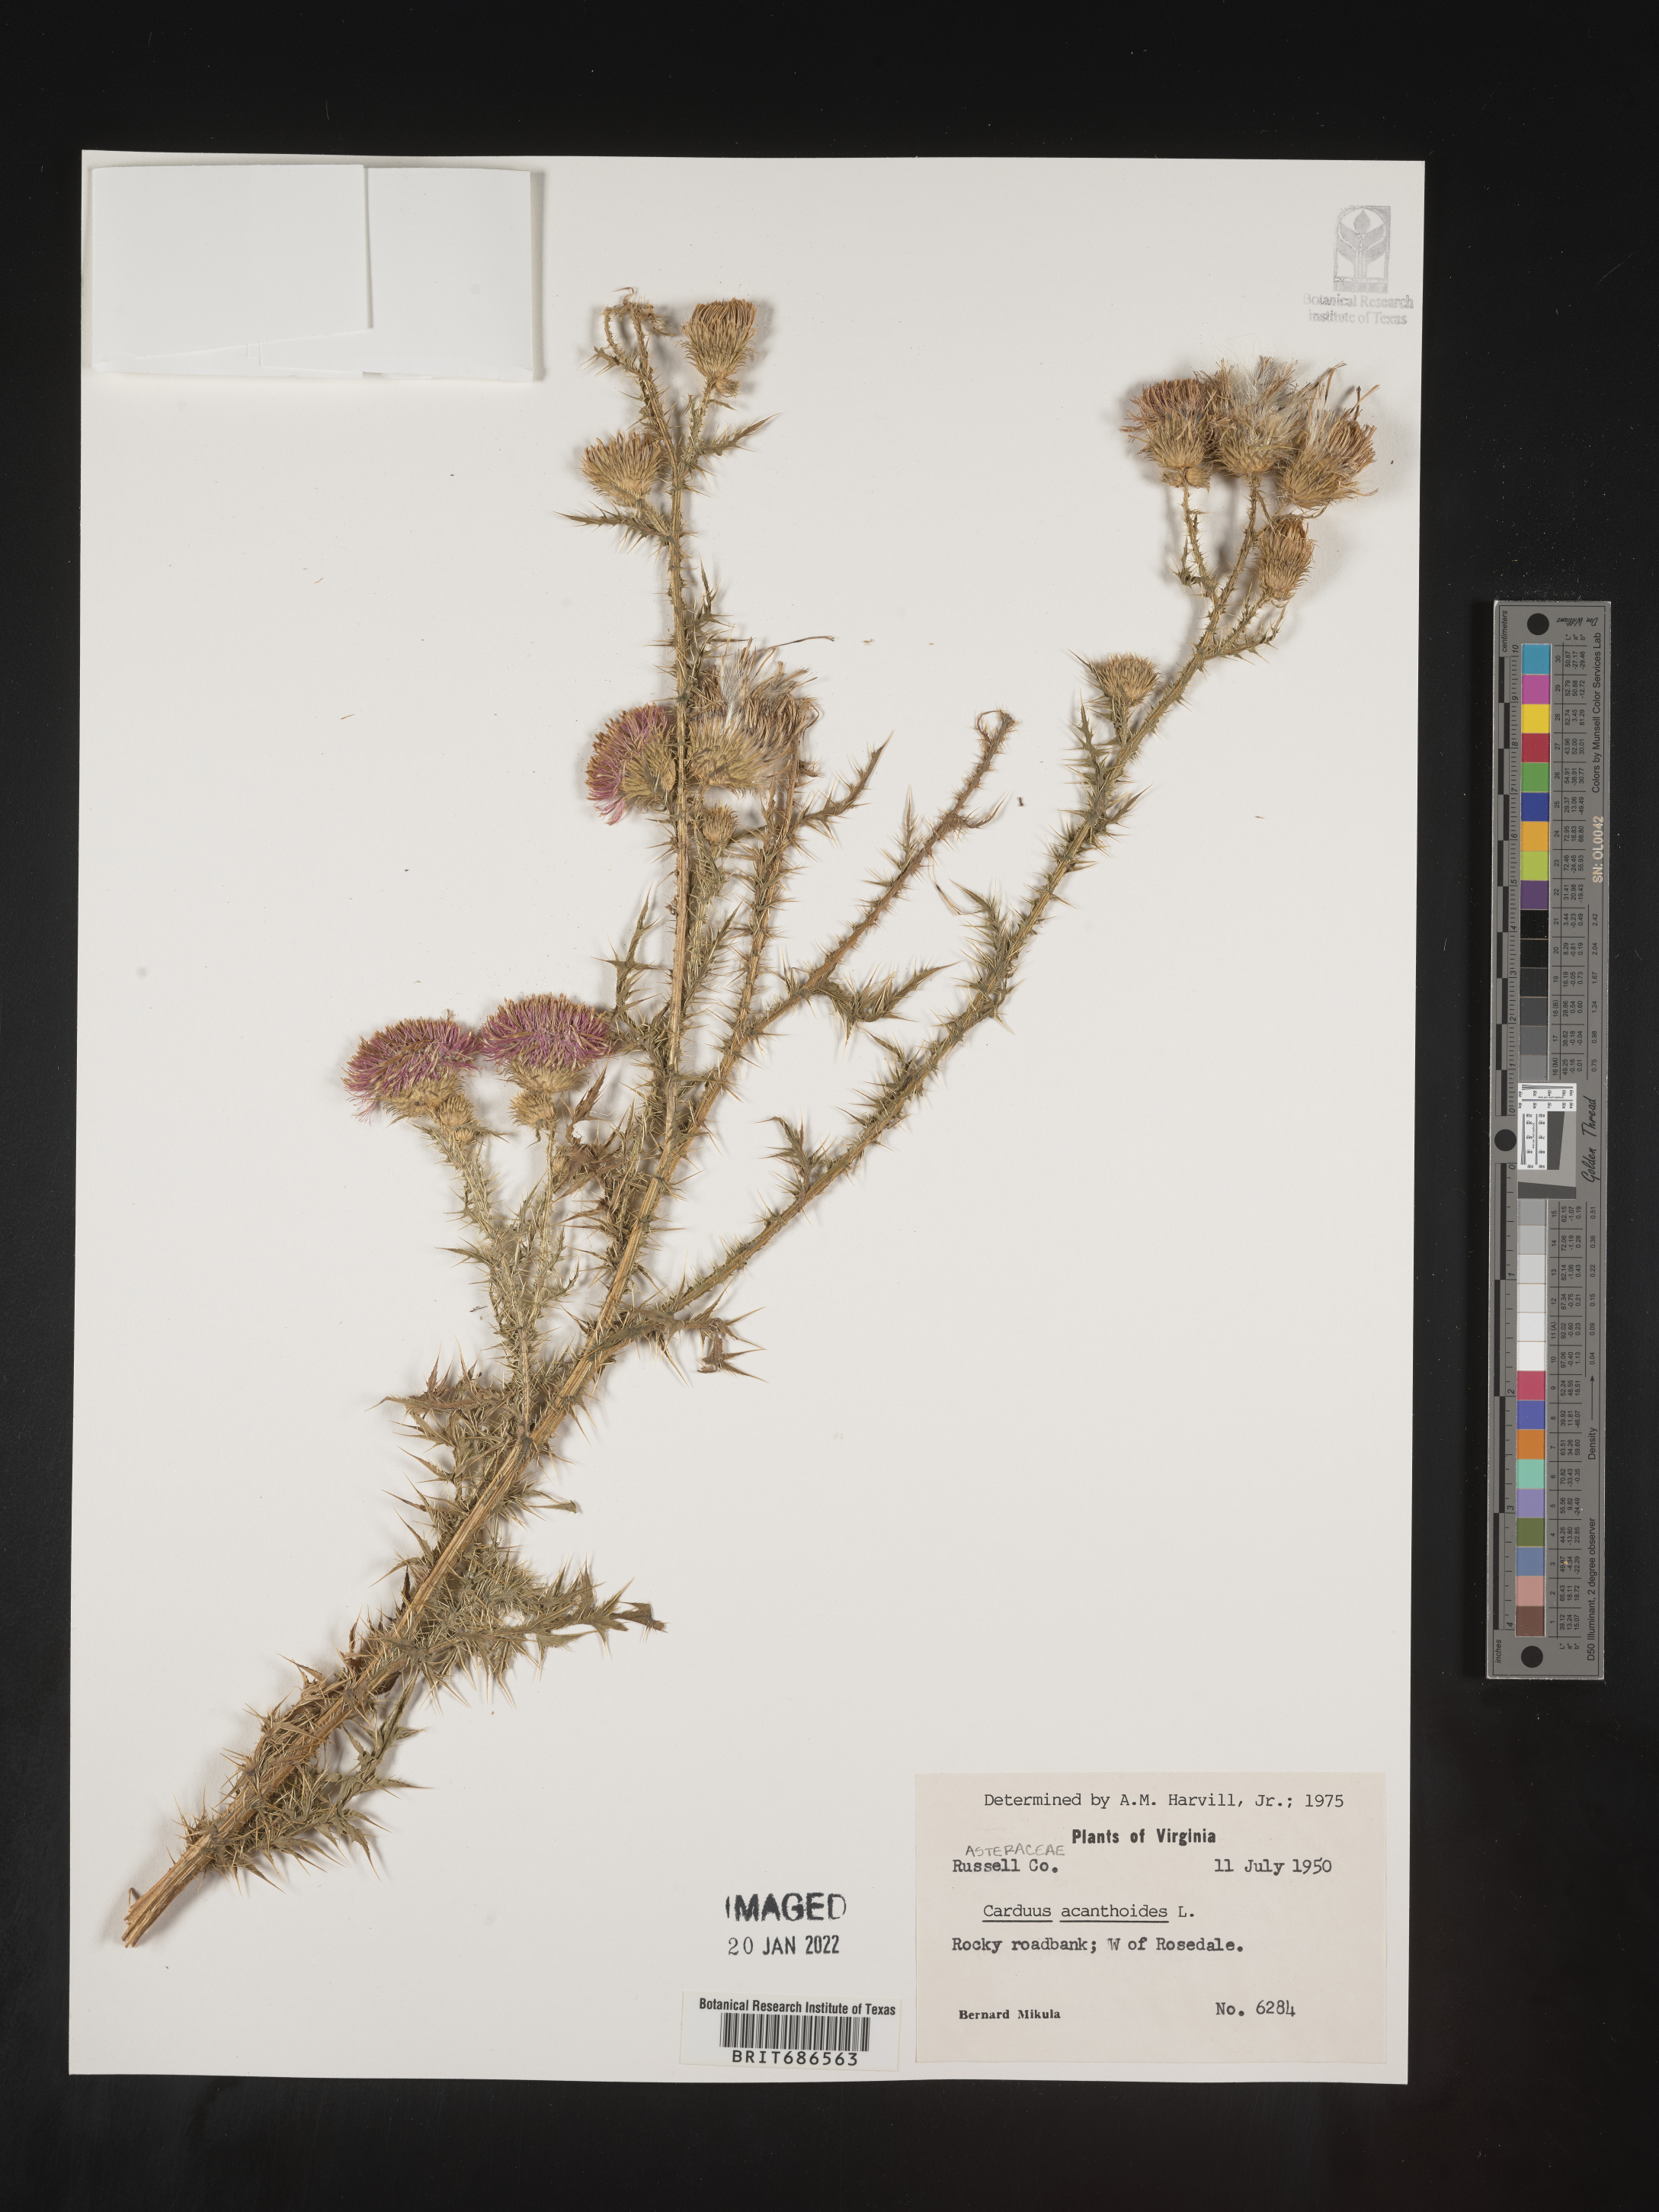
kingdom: Plantae
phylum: Tracheophyta
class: Magnoliopsida
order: Asterales
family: Asteraceae
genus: Carduus
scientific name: Carduus acanthoides
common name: Plumeless thistle
